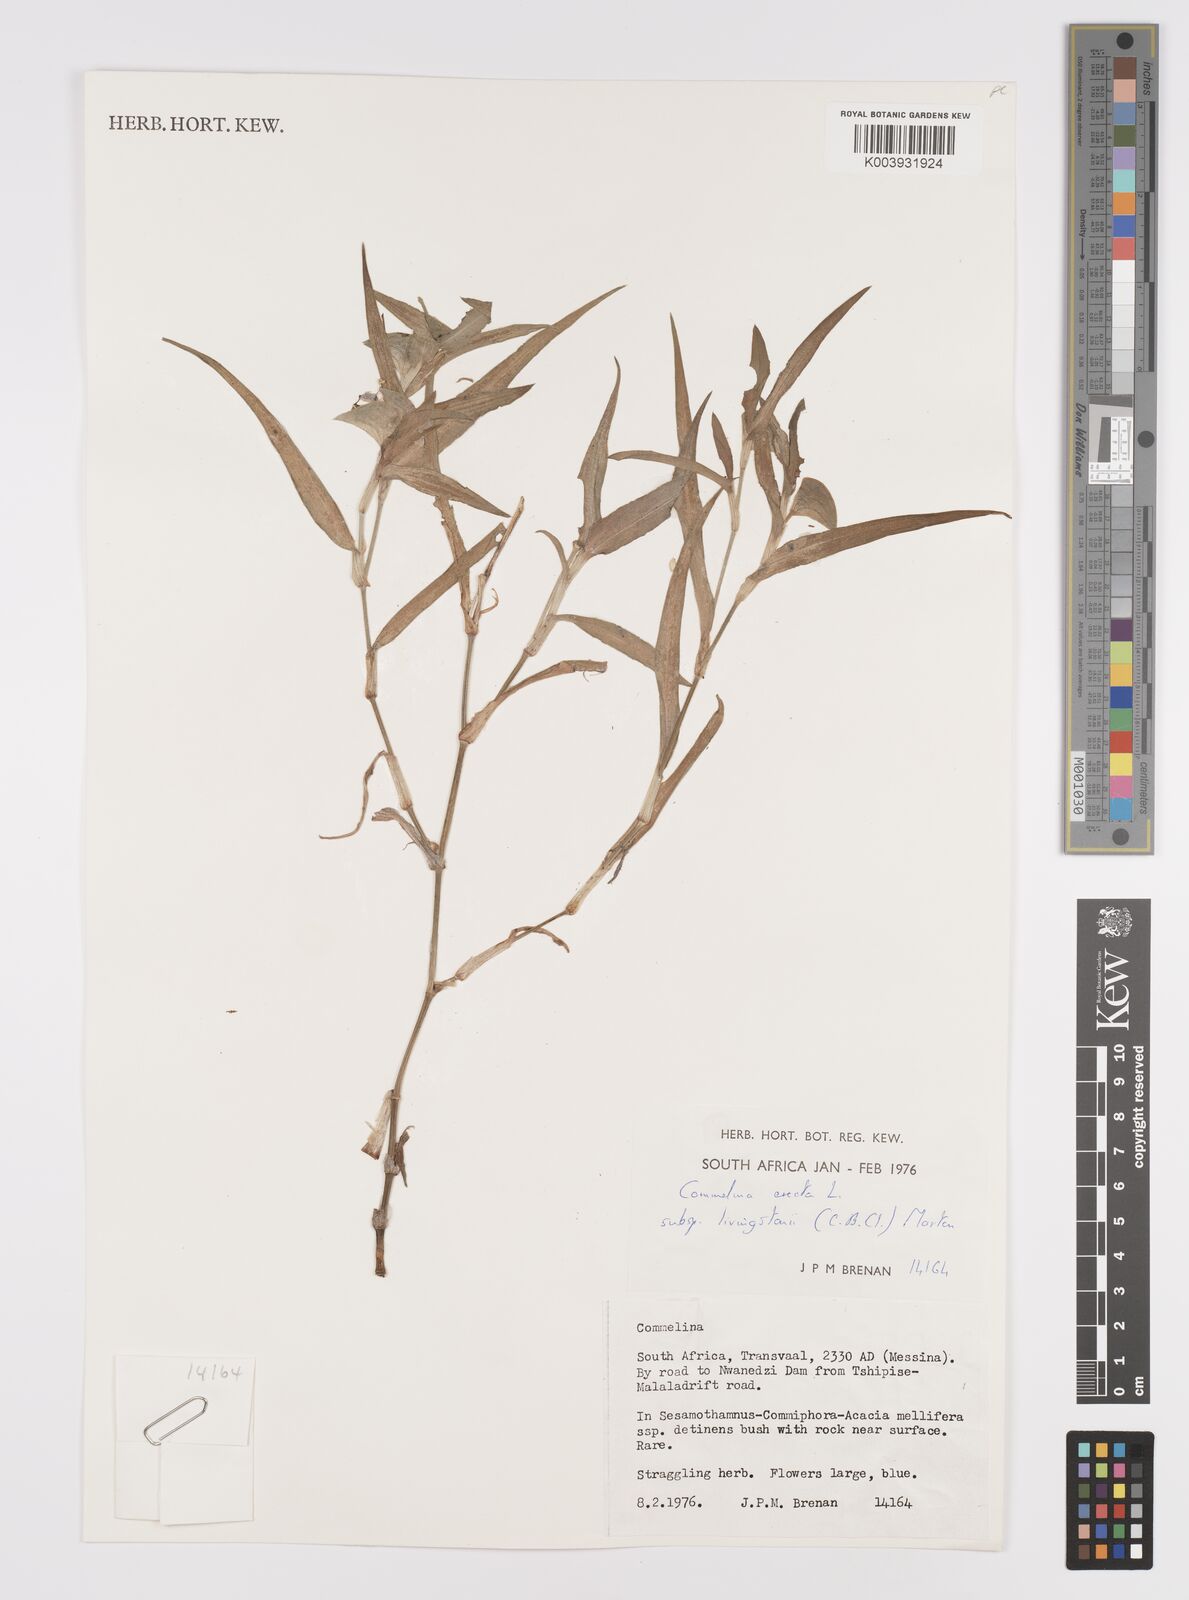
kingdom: Plantae
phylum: Tracheophyta
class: Liliopsida
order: Commelinales
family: Commelinaceae
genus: Commelina
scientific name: Commelina erecta
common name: Blousel blommetjie
